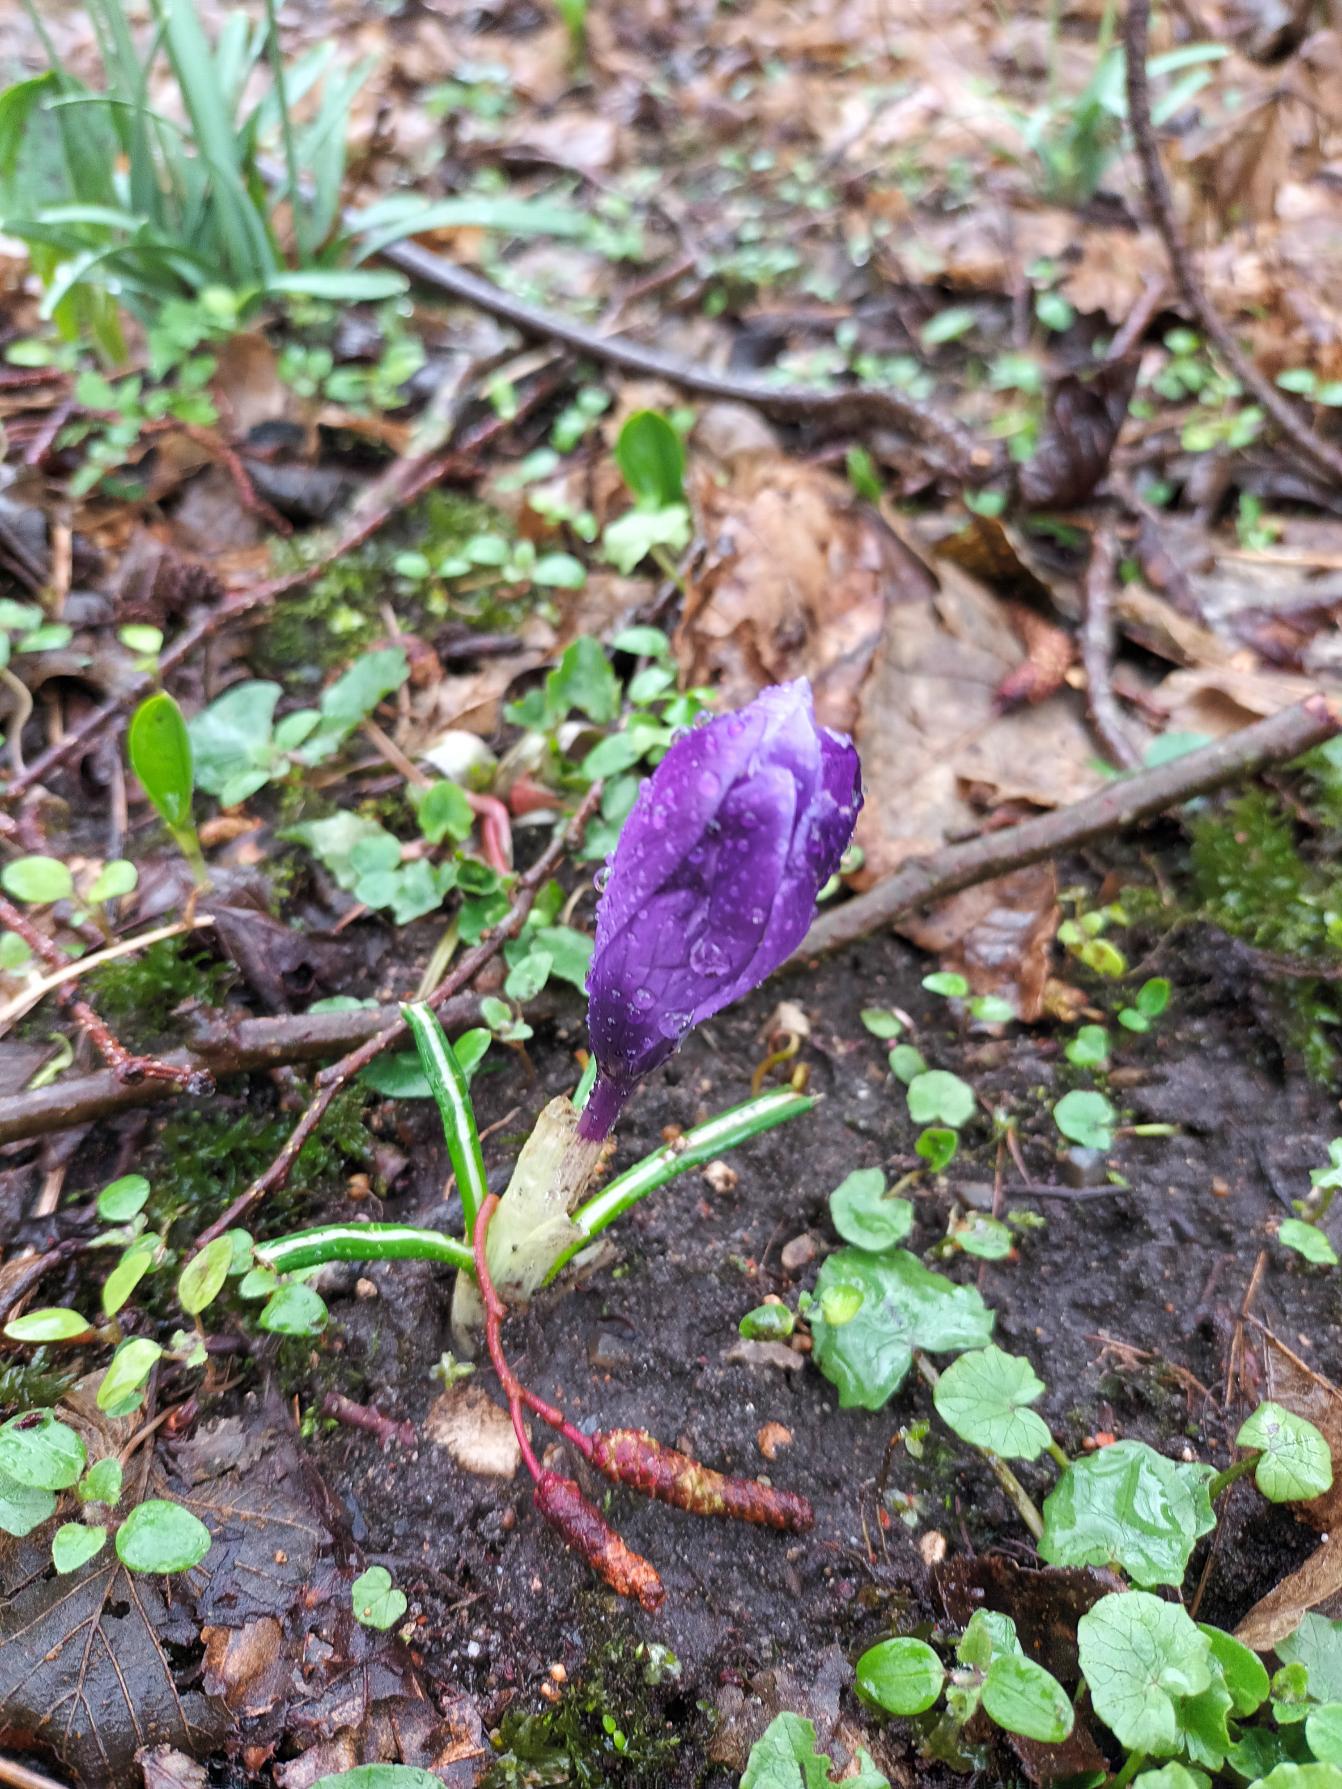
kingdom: Plantae
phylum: Tracheophyta
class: Liliopsida
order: Asparagales
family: Iridaceae
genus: Crocus
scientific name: Crocus vernus
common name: Vår-krokus
